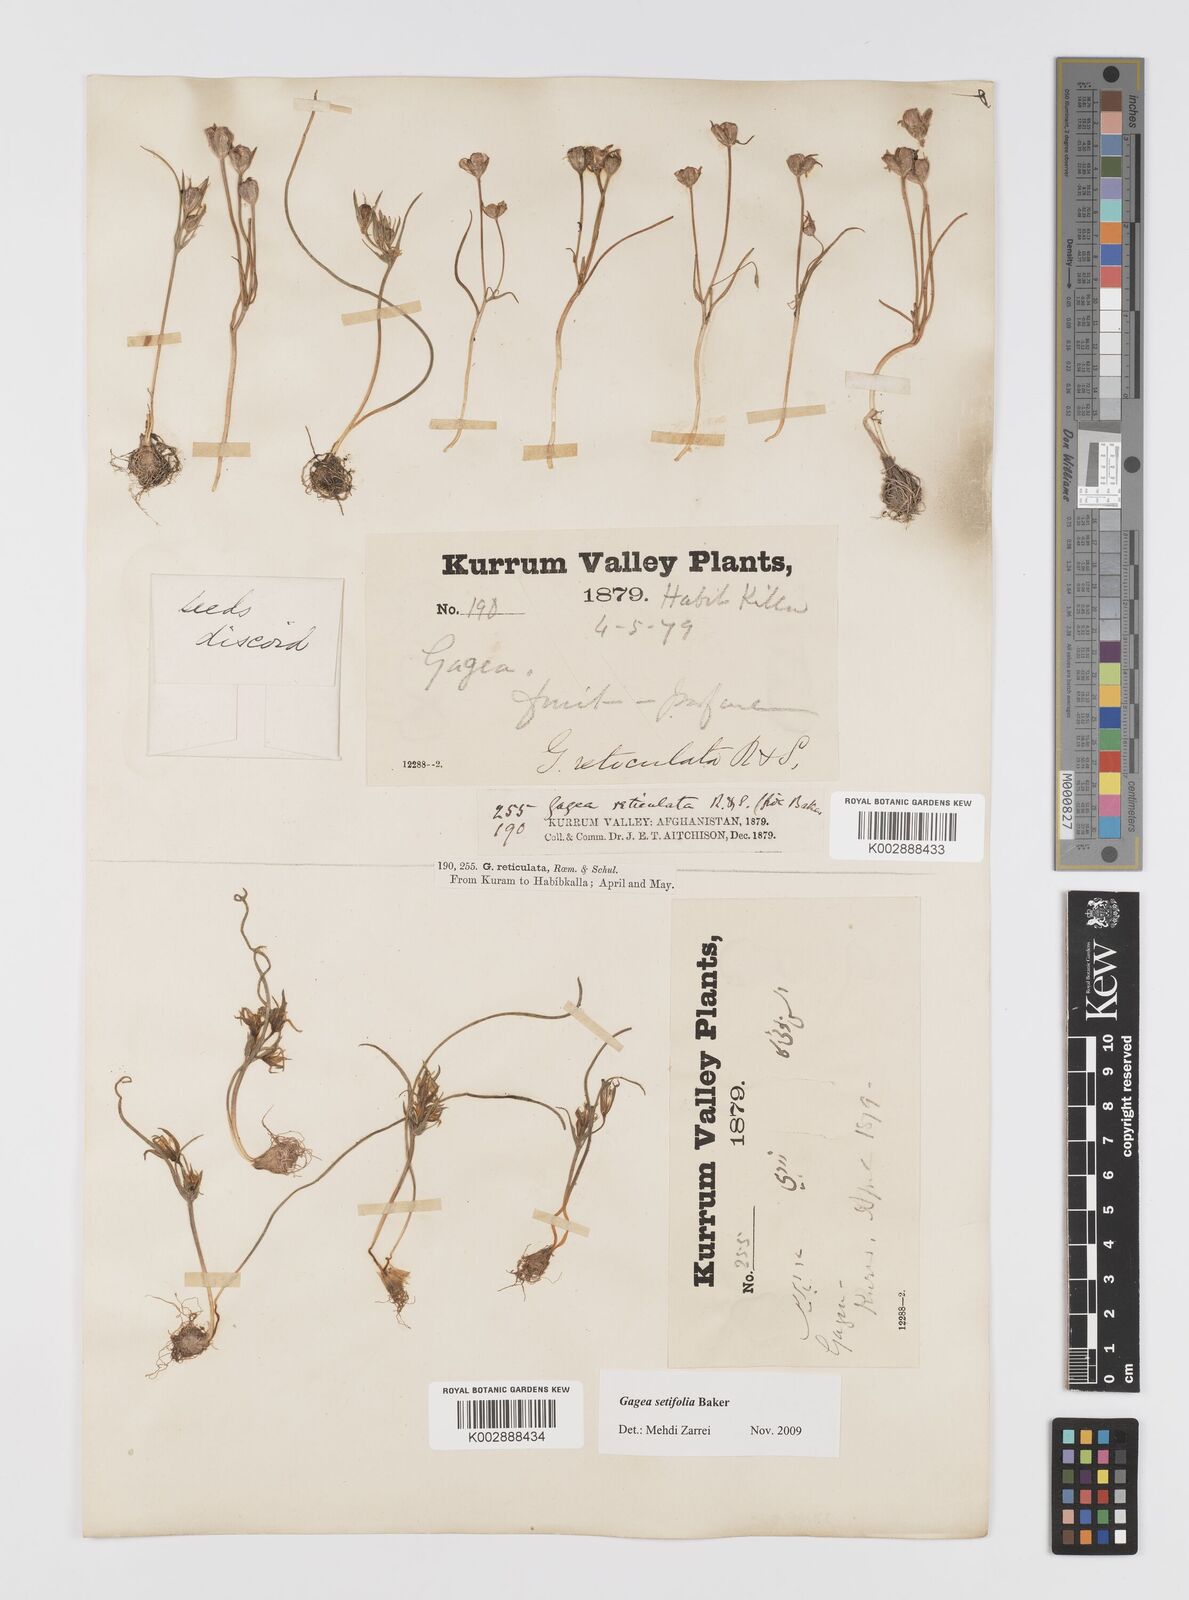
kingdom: Plantae
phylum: Tracheophyta
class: Liliopsida
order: Liliales
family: Liliaceae
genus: Gagea
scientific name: Gagea setifolia
